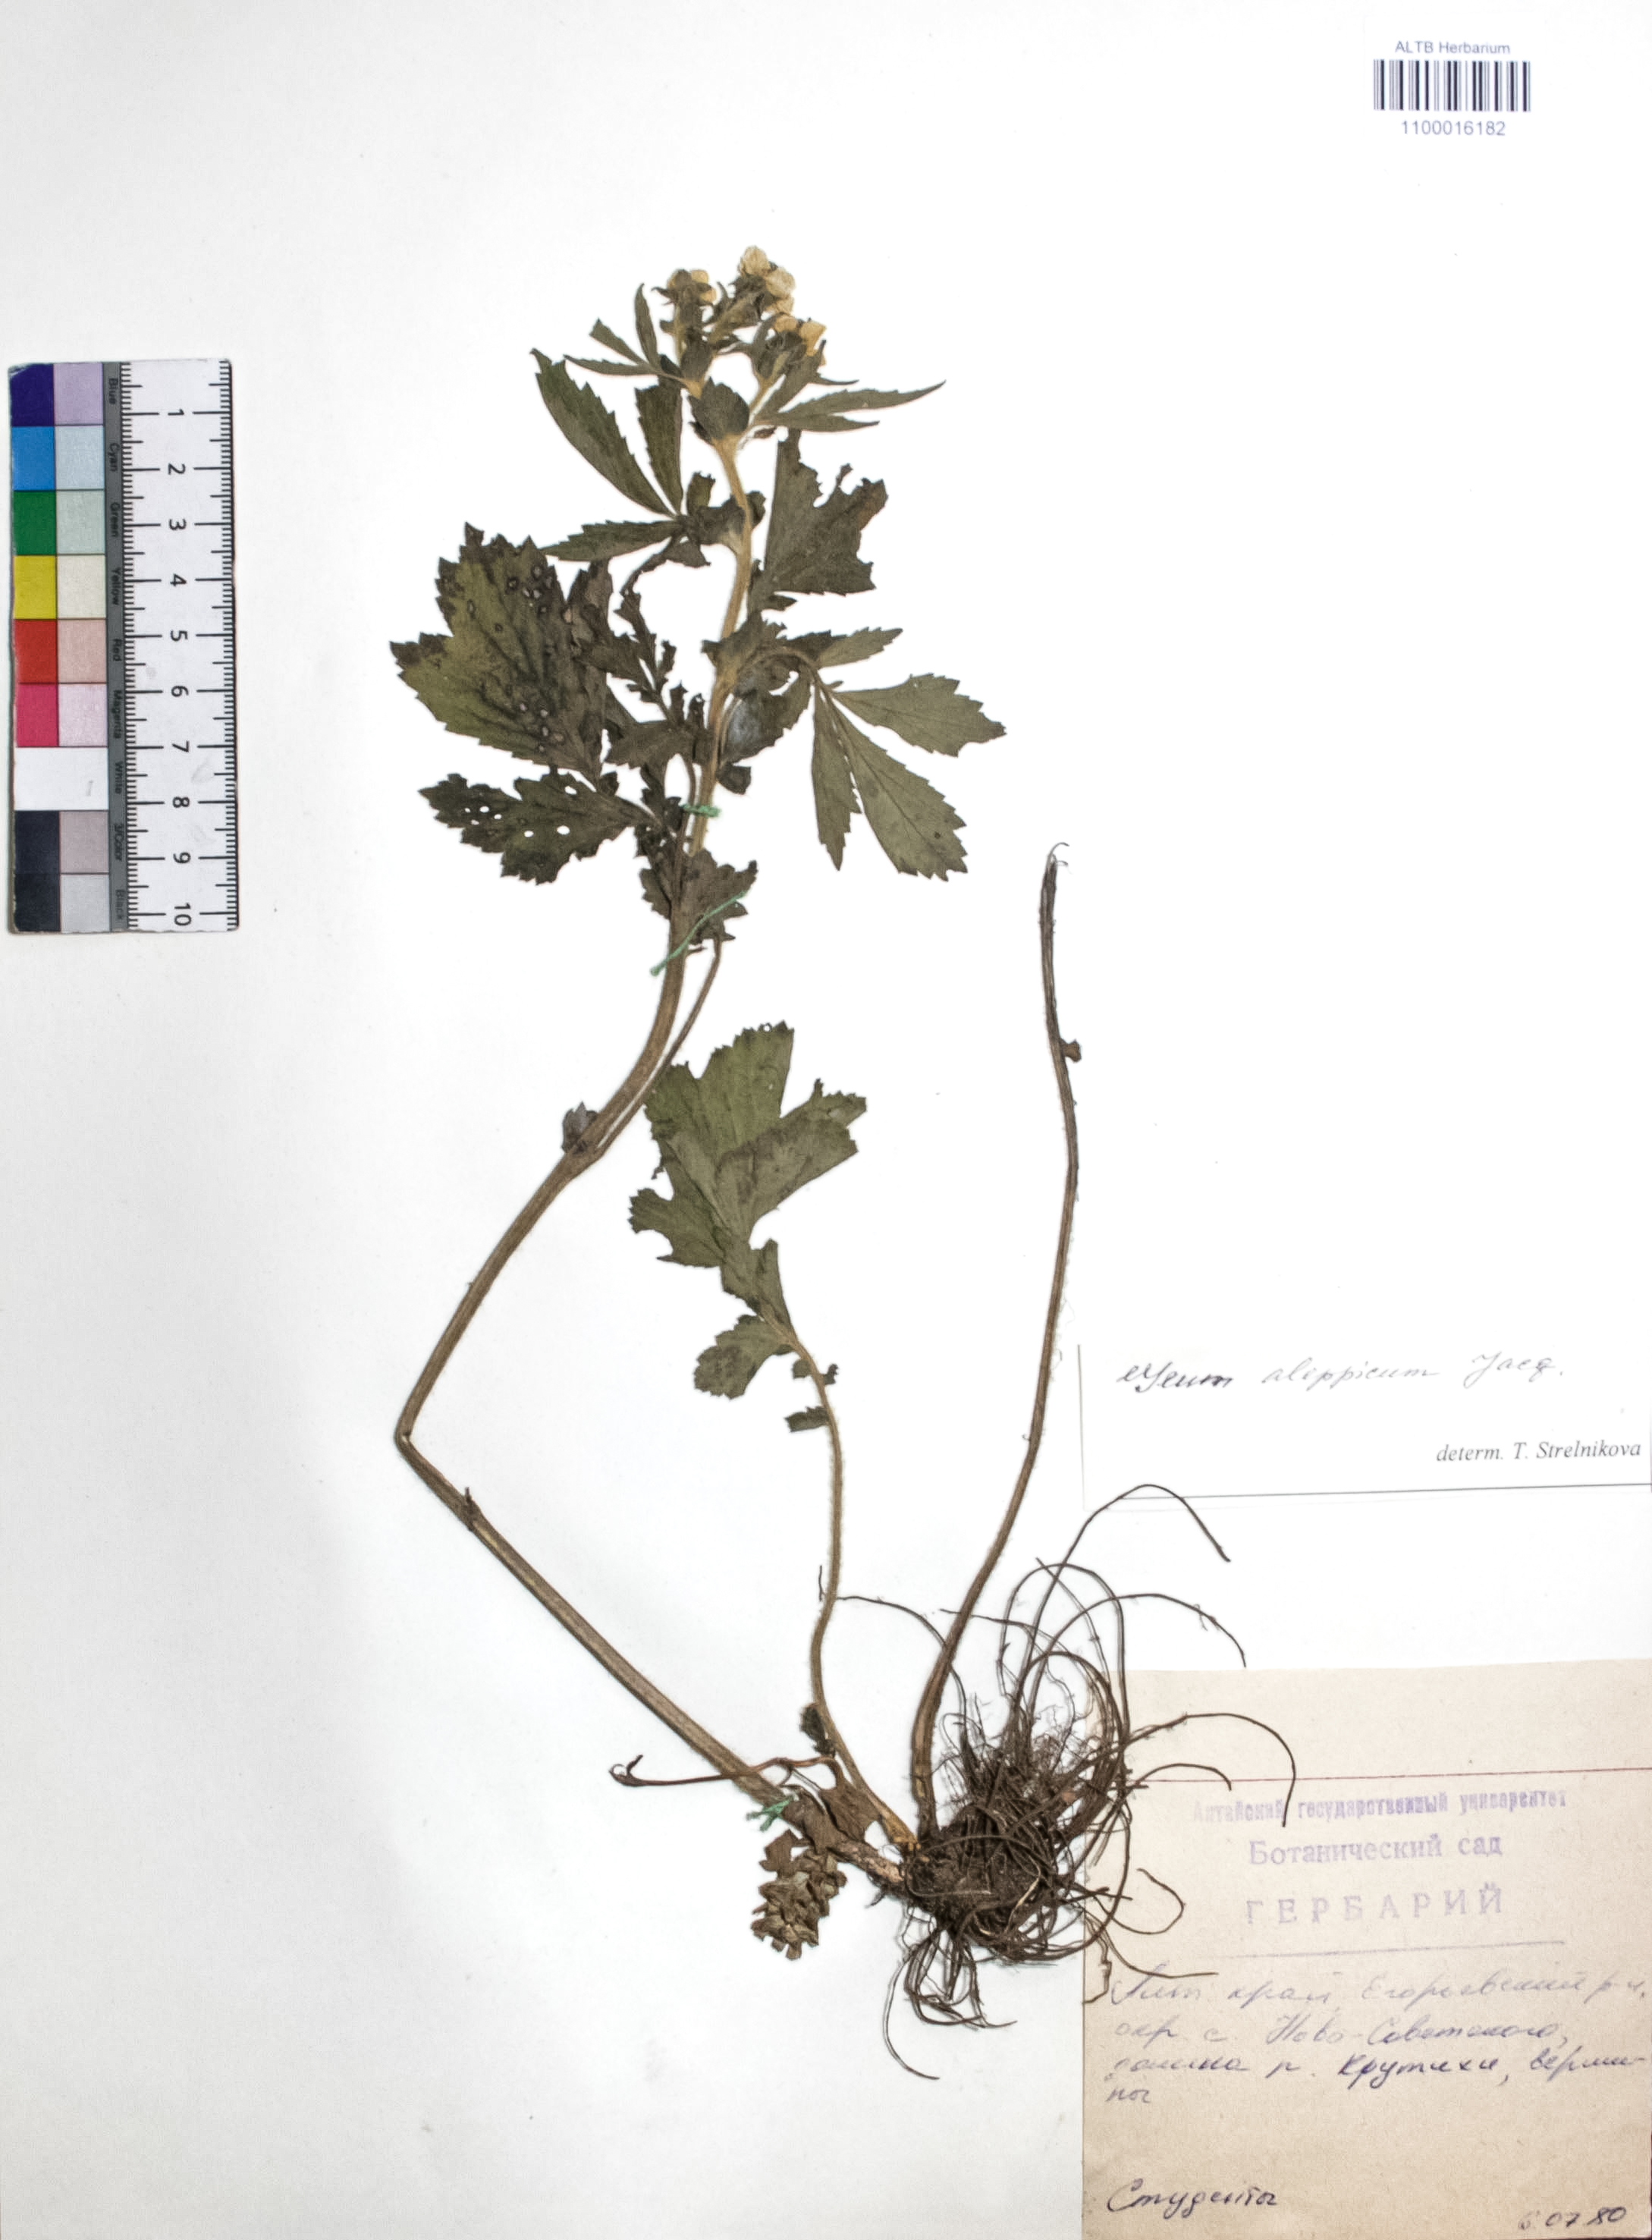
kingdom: Plantae
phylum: Tracheophyta
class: Magnoliopsida
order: Rosales
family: Rosaceae
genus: Geum
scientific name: Geum aleppicum
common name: Yellow avens
